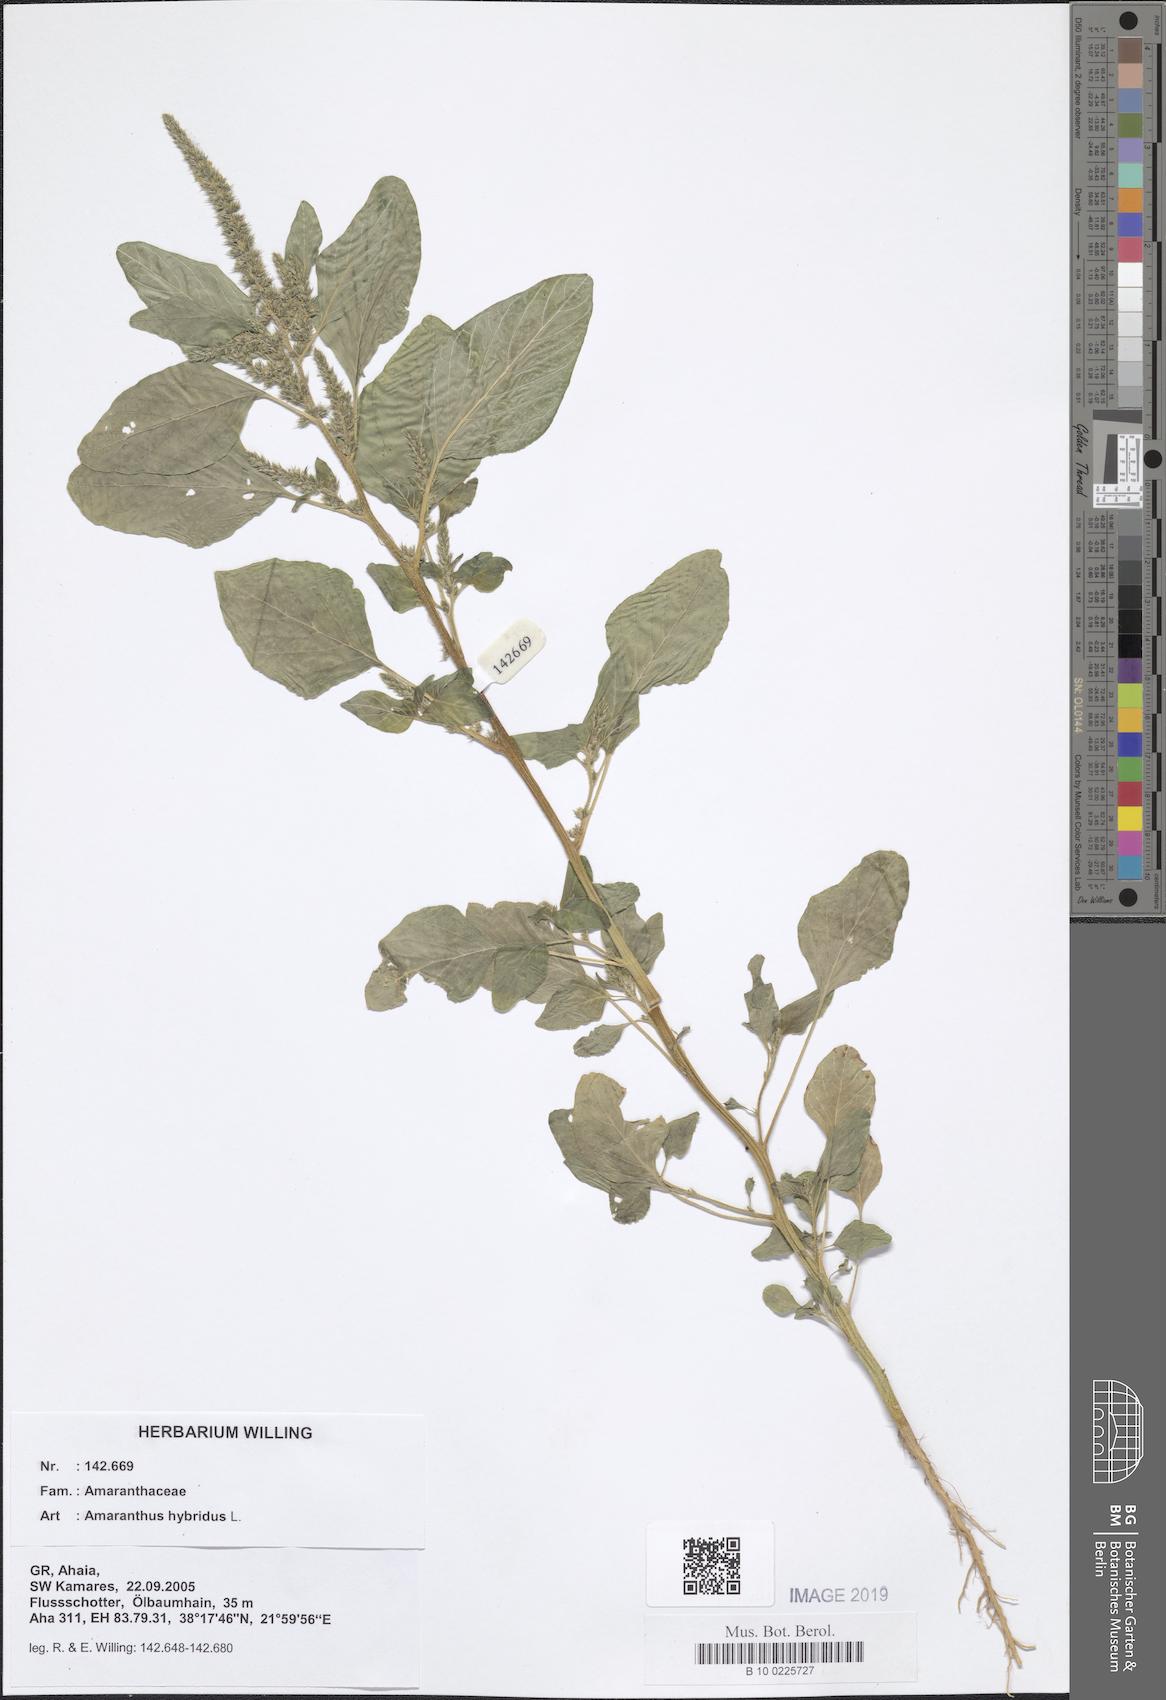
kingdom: Plantae
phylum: Tracheophyta
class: Magnoliopsida
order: Caryophyllales
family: Amaranthaceae
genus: Amaranthus
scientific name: Amaranthus hybridus
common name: Green amaranth
